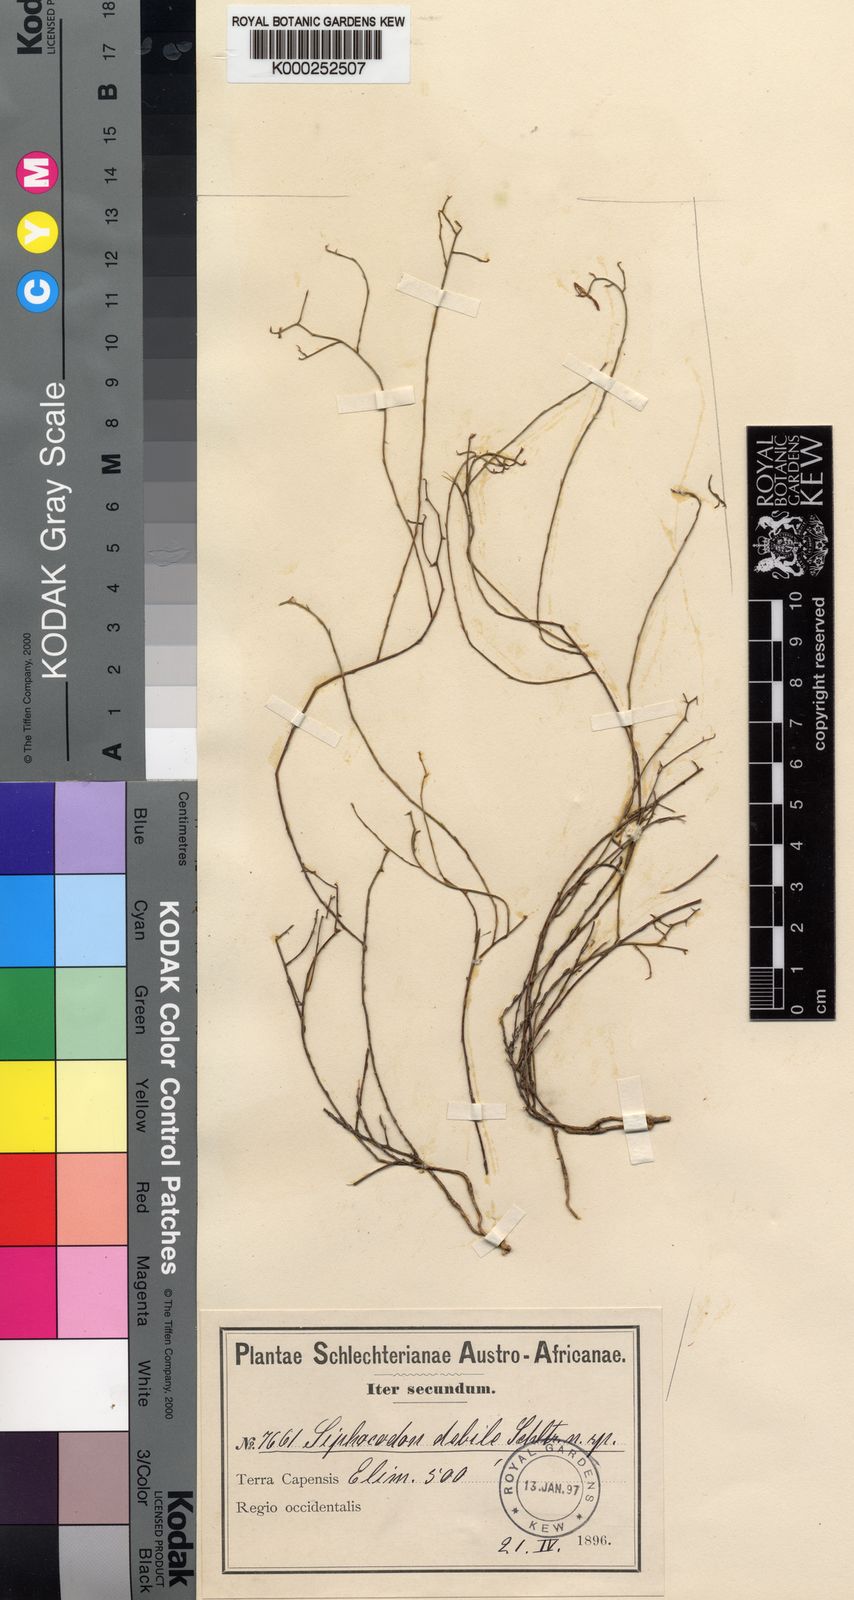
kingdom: Plantae
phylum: Tracheophyta
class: Magnoliopsida
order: Asterales
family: Campanulaceae
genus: Siphocodon
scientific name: Siphocodon
